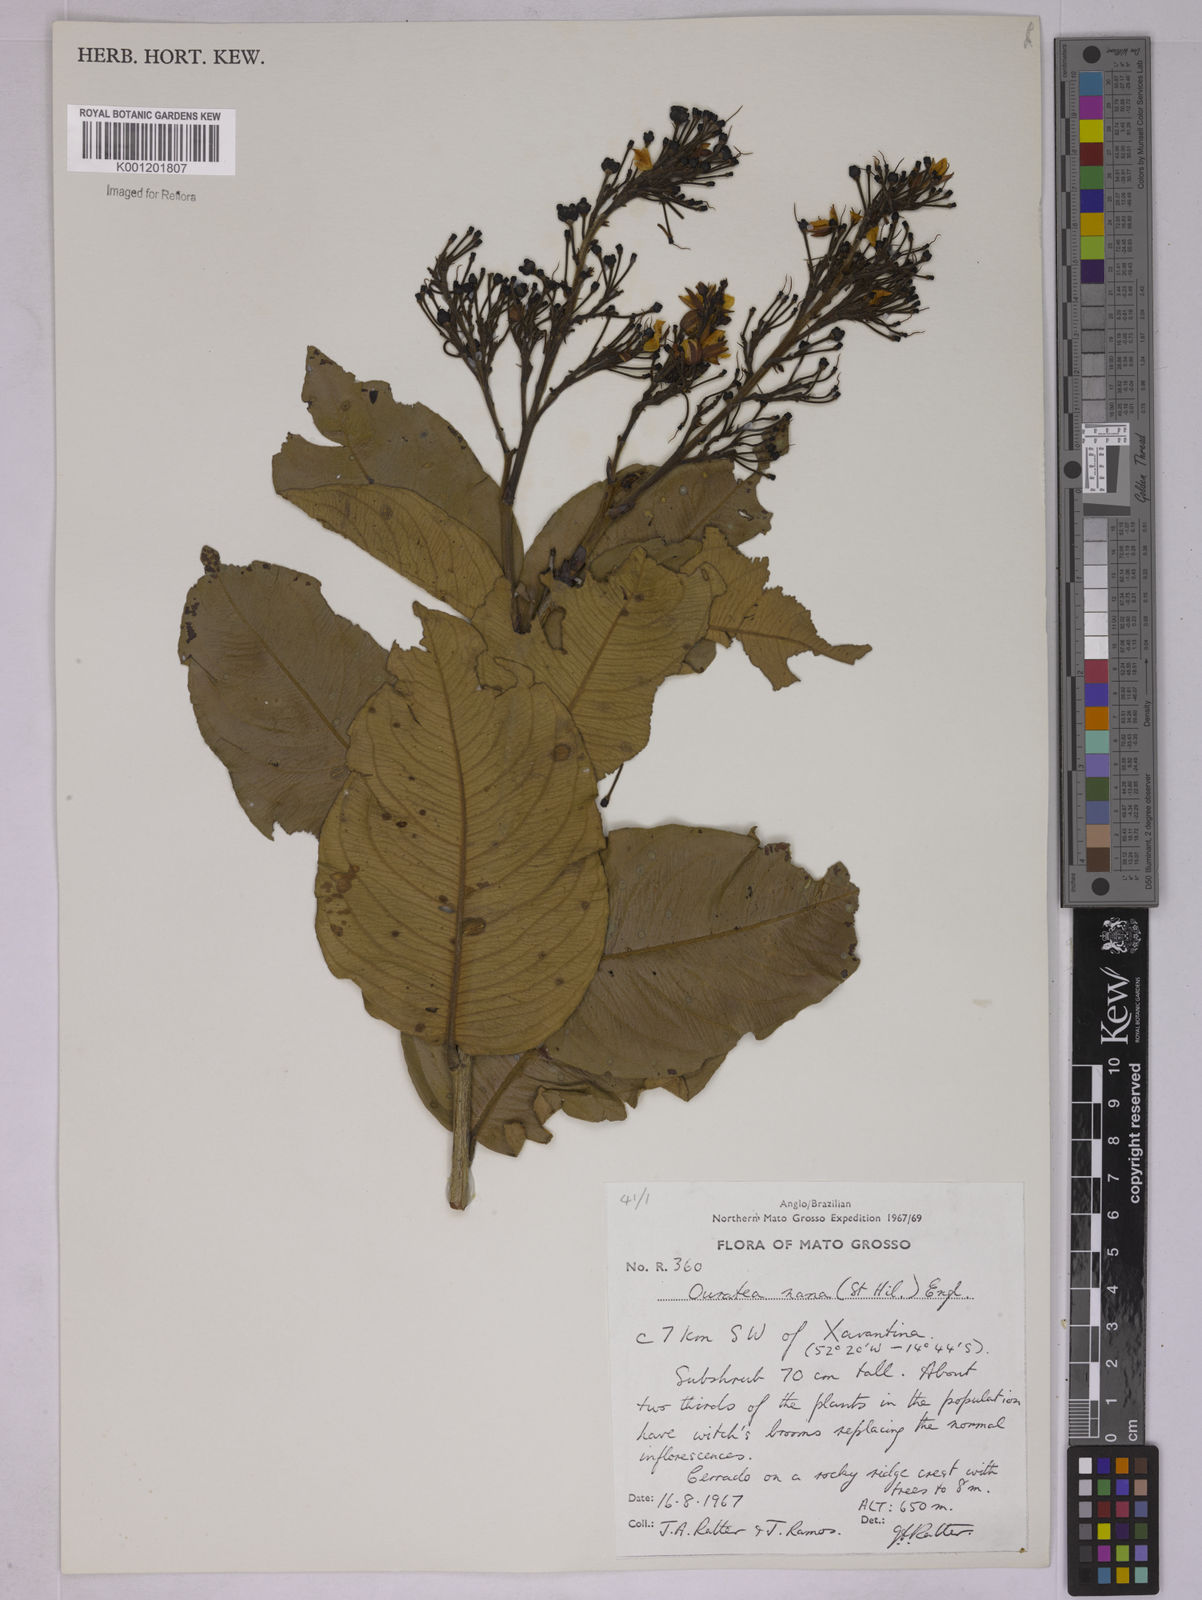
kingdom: Plantae
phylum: Tracheophyta
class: Magnoliopsida
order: Malpighiales
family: Ochnaceae
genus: Ouratea
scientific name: Ouratea nana
